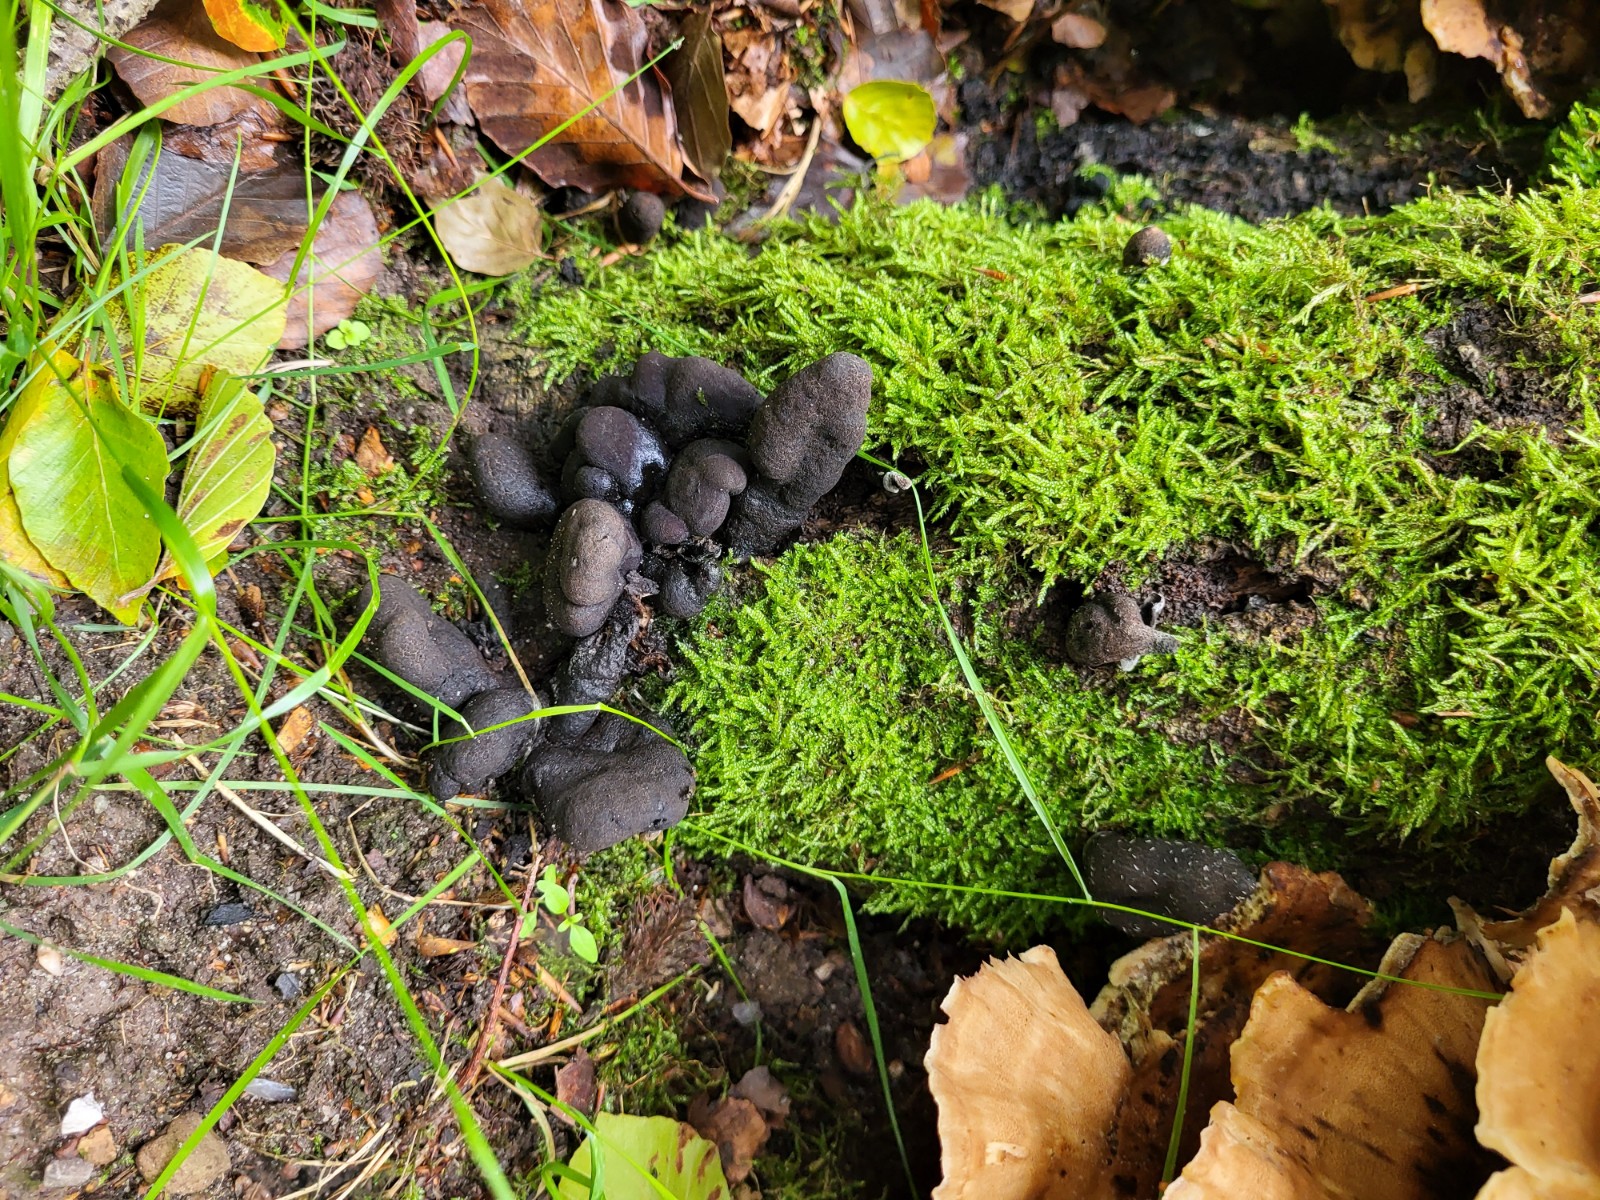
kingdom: Fungi
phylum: Ascomycota
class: Sordariomycetes
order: Xylariales
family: Xylariaceae
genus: Xylaria
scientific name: Xylaria polymorpha
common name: kølle-stødsvamp
